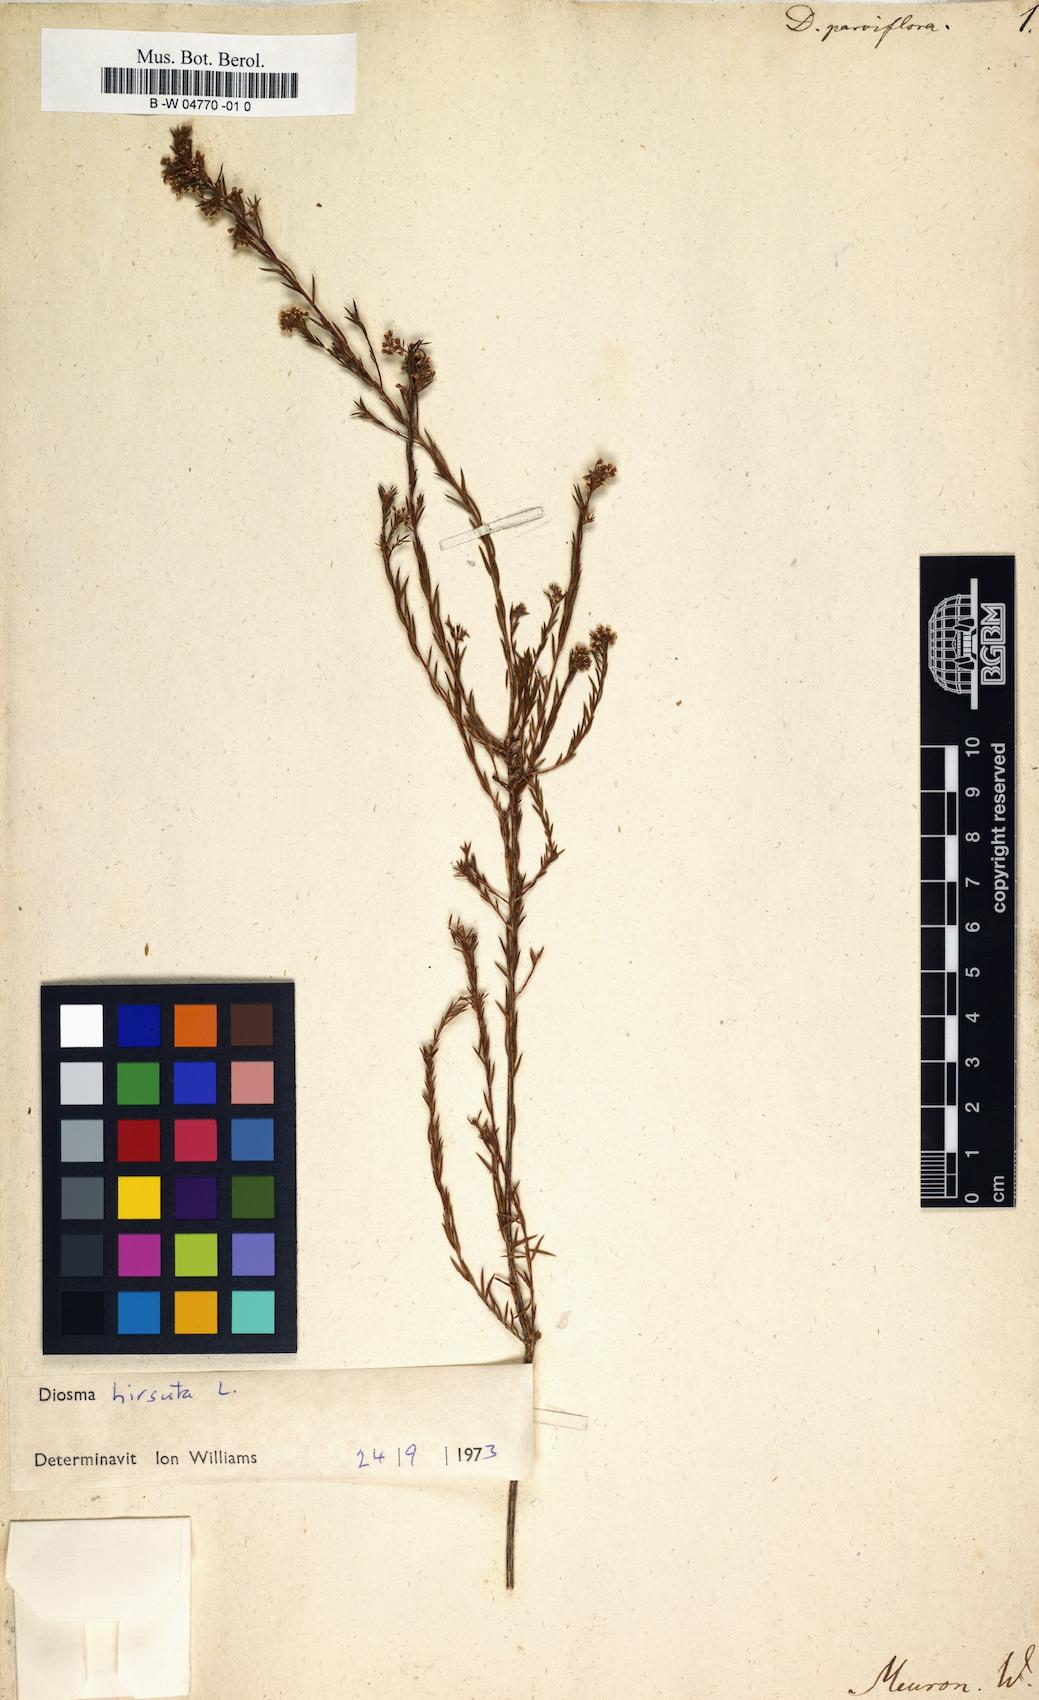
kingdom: Plantae
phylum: Tracheophyta
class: Magnoliopsida
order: Sapindales
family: Rutaceae
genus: Agathosma
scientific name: Agathosma virgata
